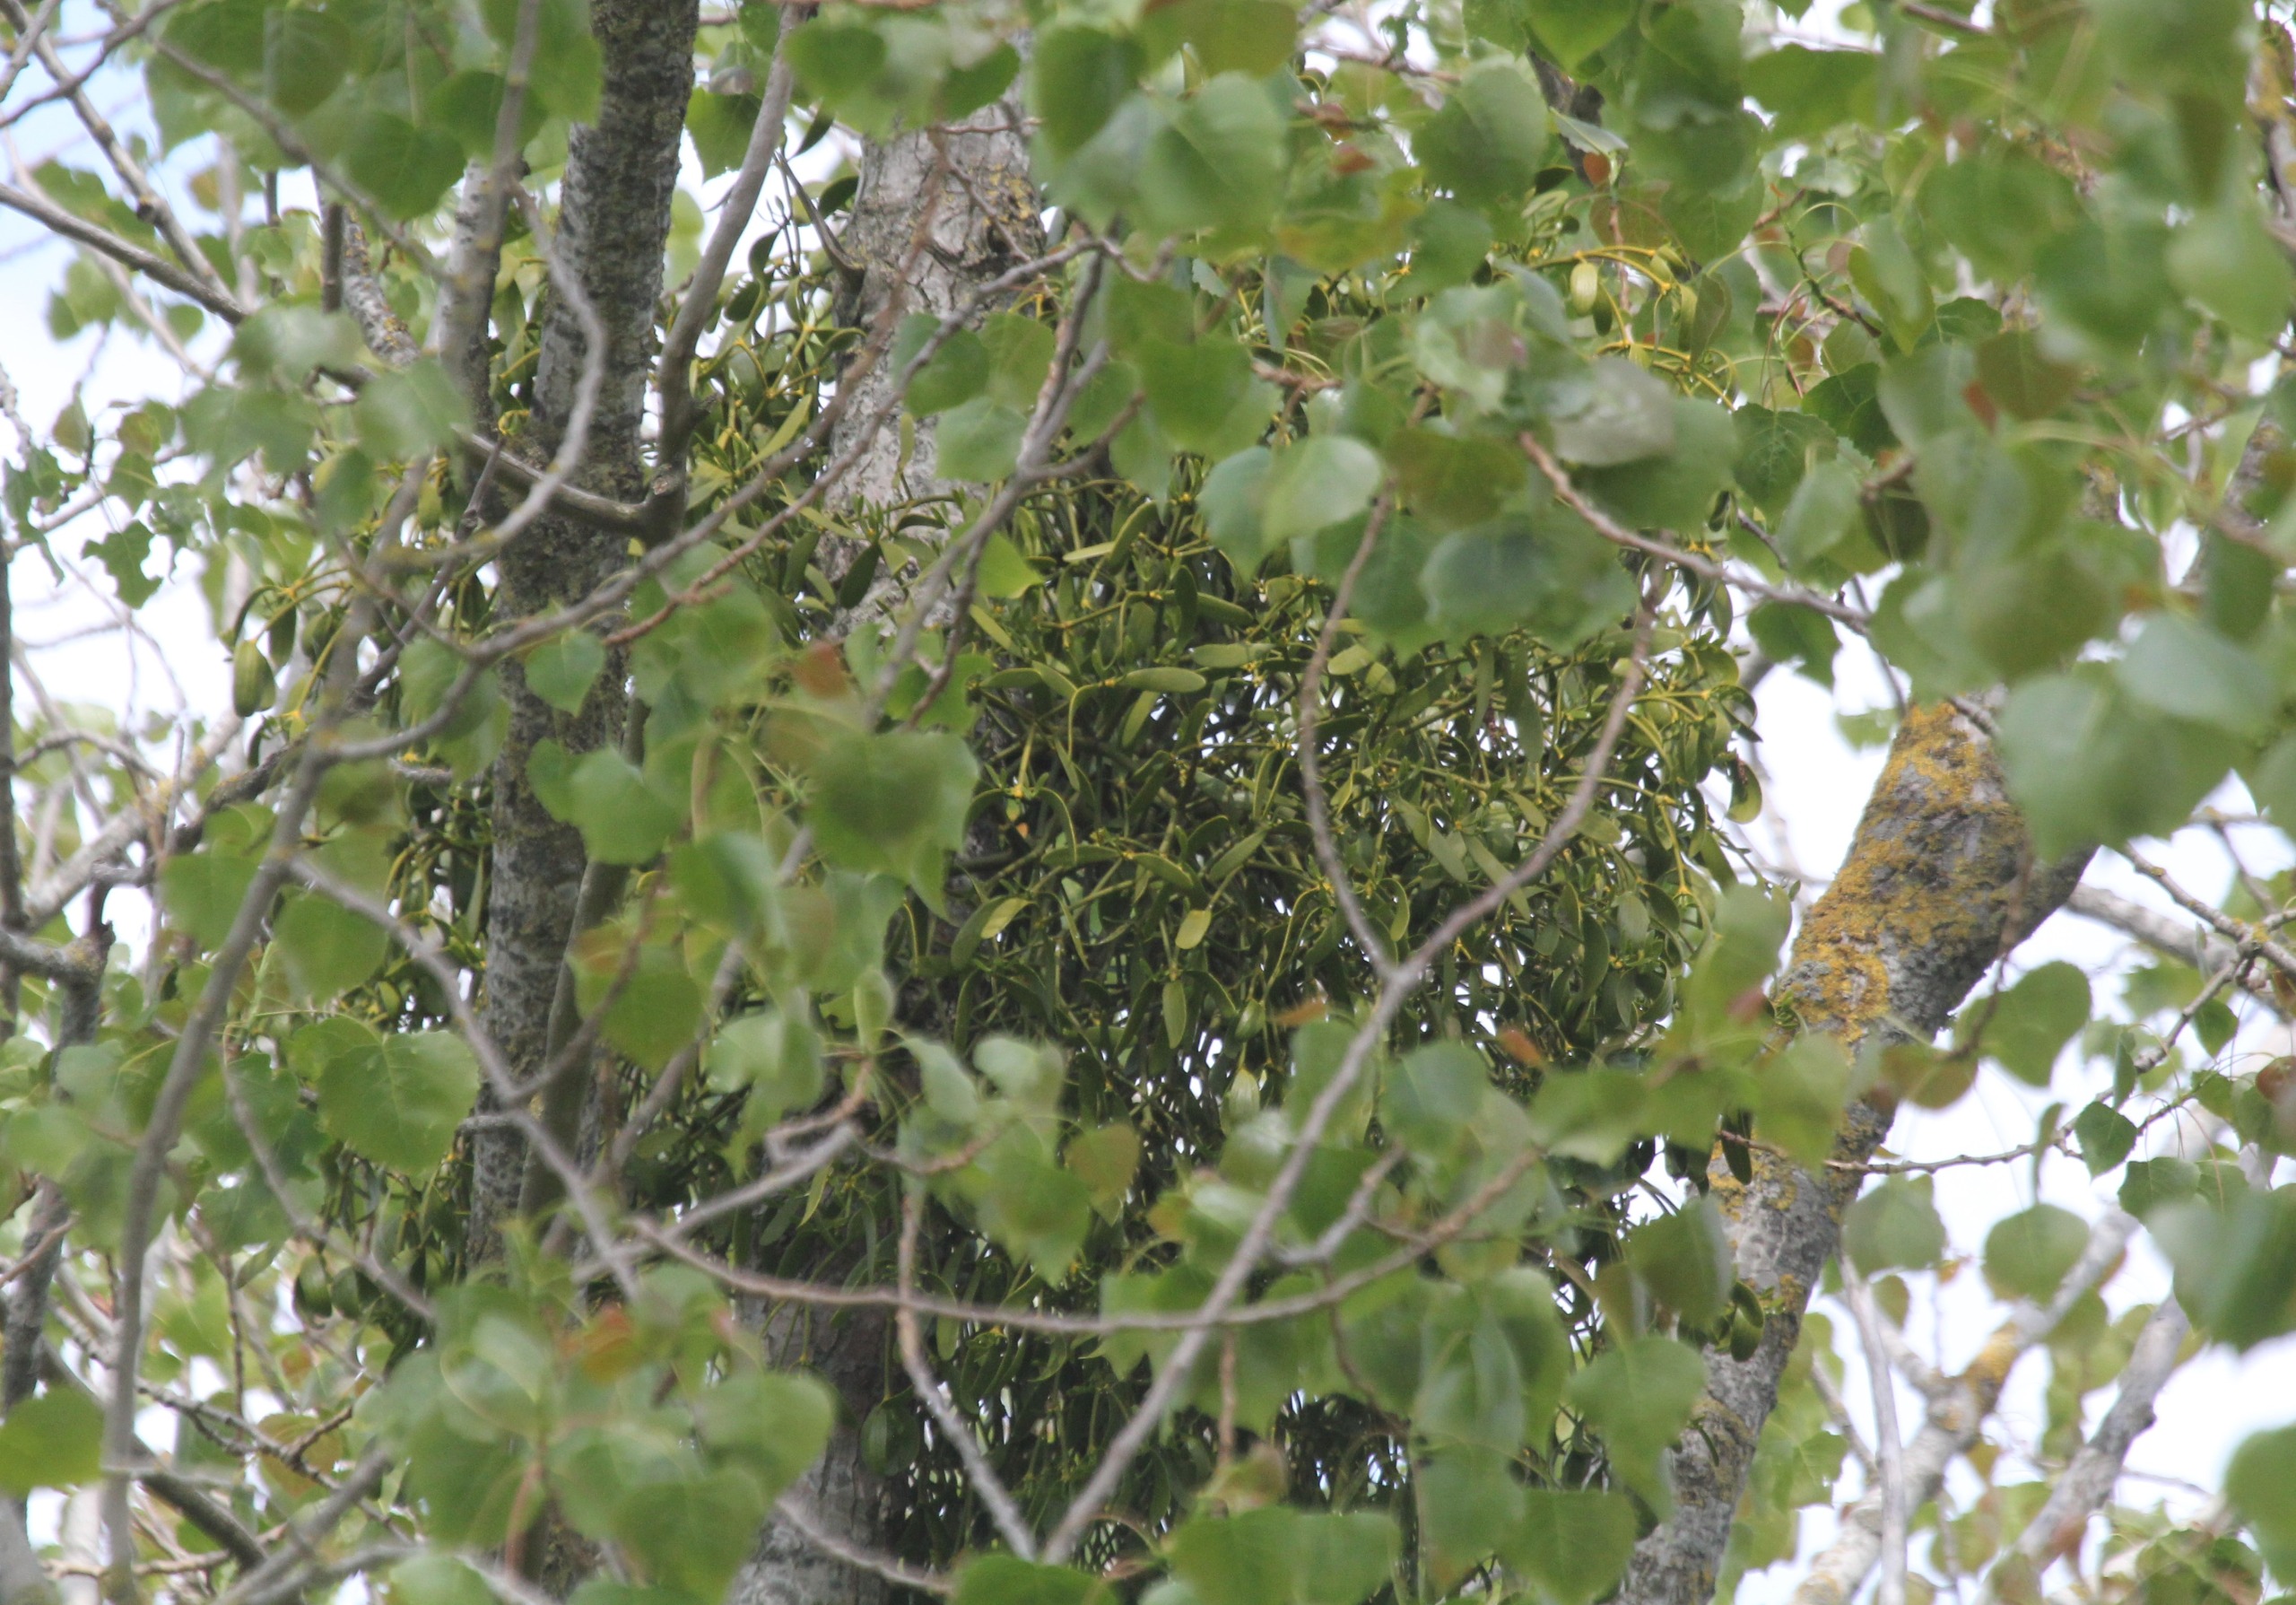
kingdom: Plantae
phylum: Tracheophyta
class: Magnoliopsida
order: Santalales
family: Viscaceae
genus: Viscum
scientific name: Viscum album
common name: Mistelten
